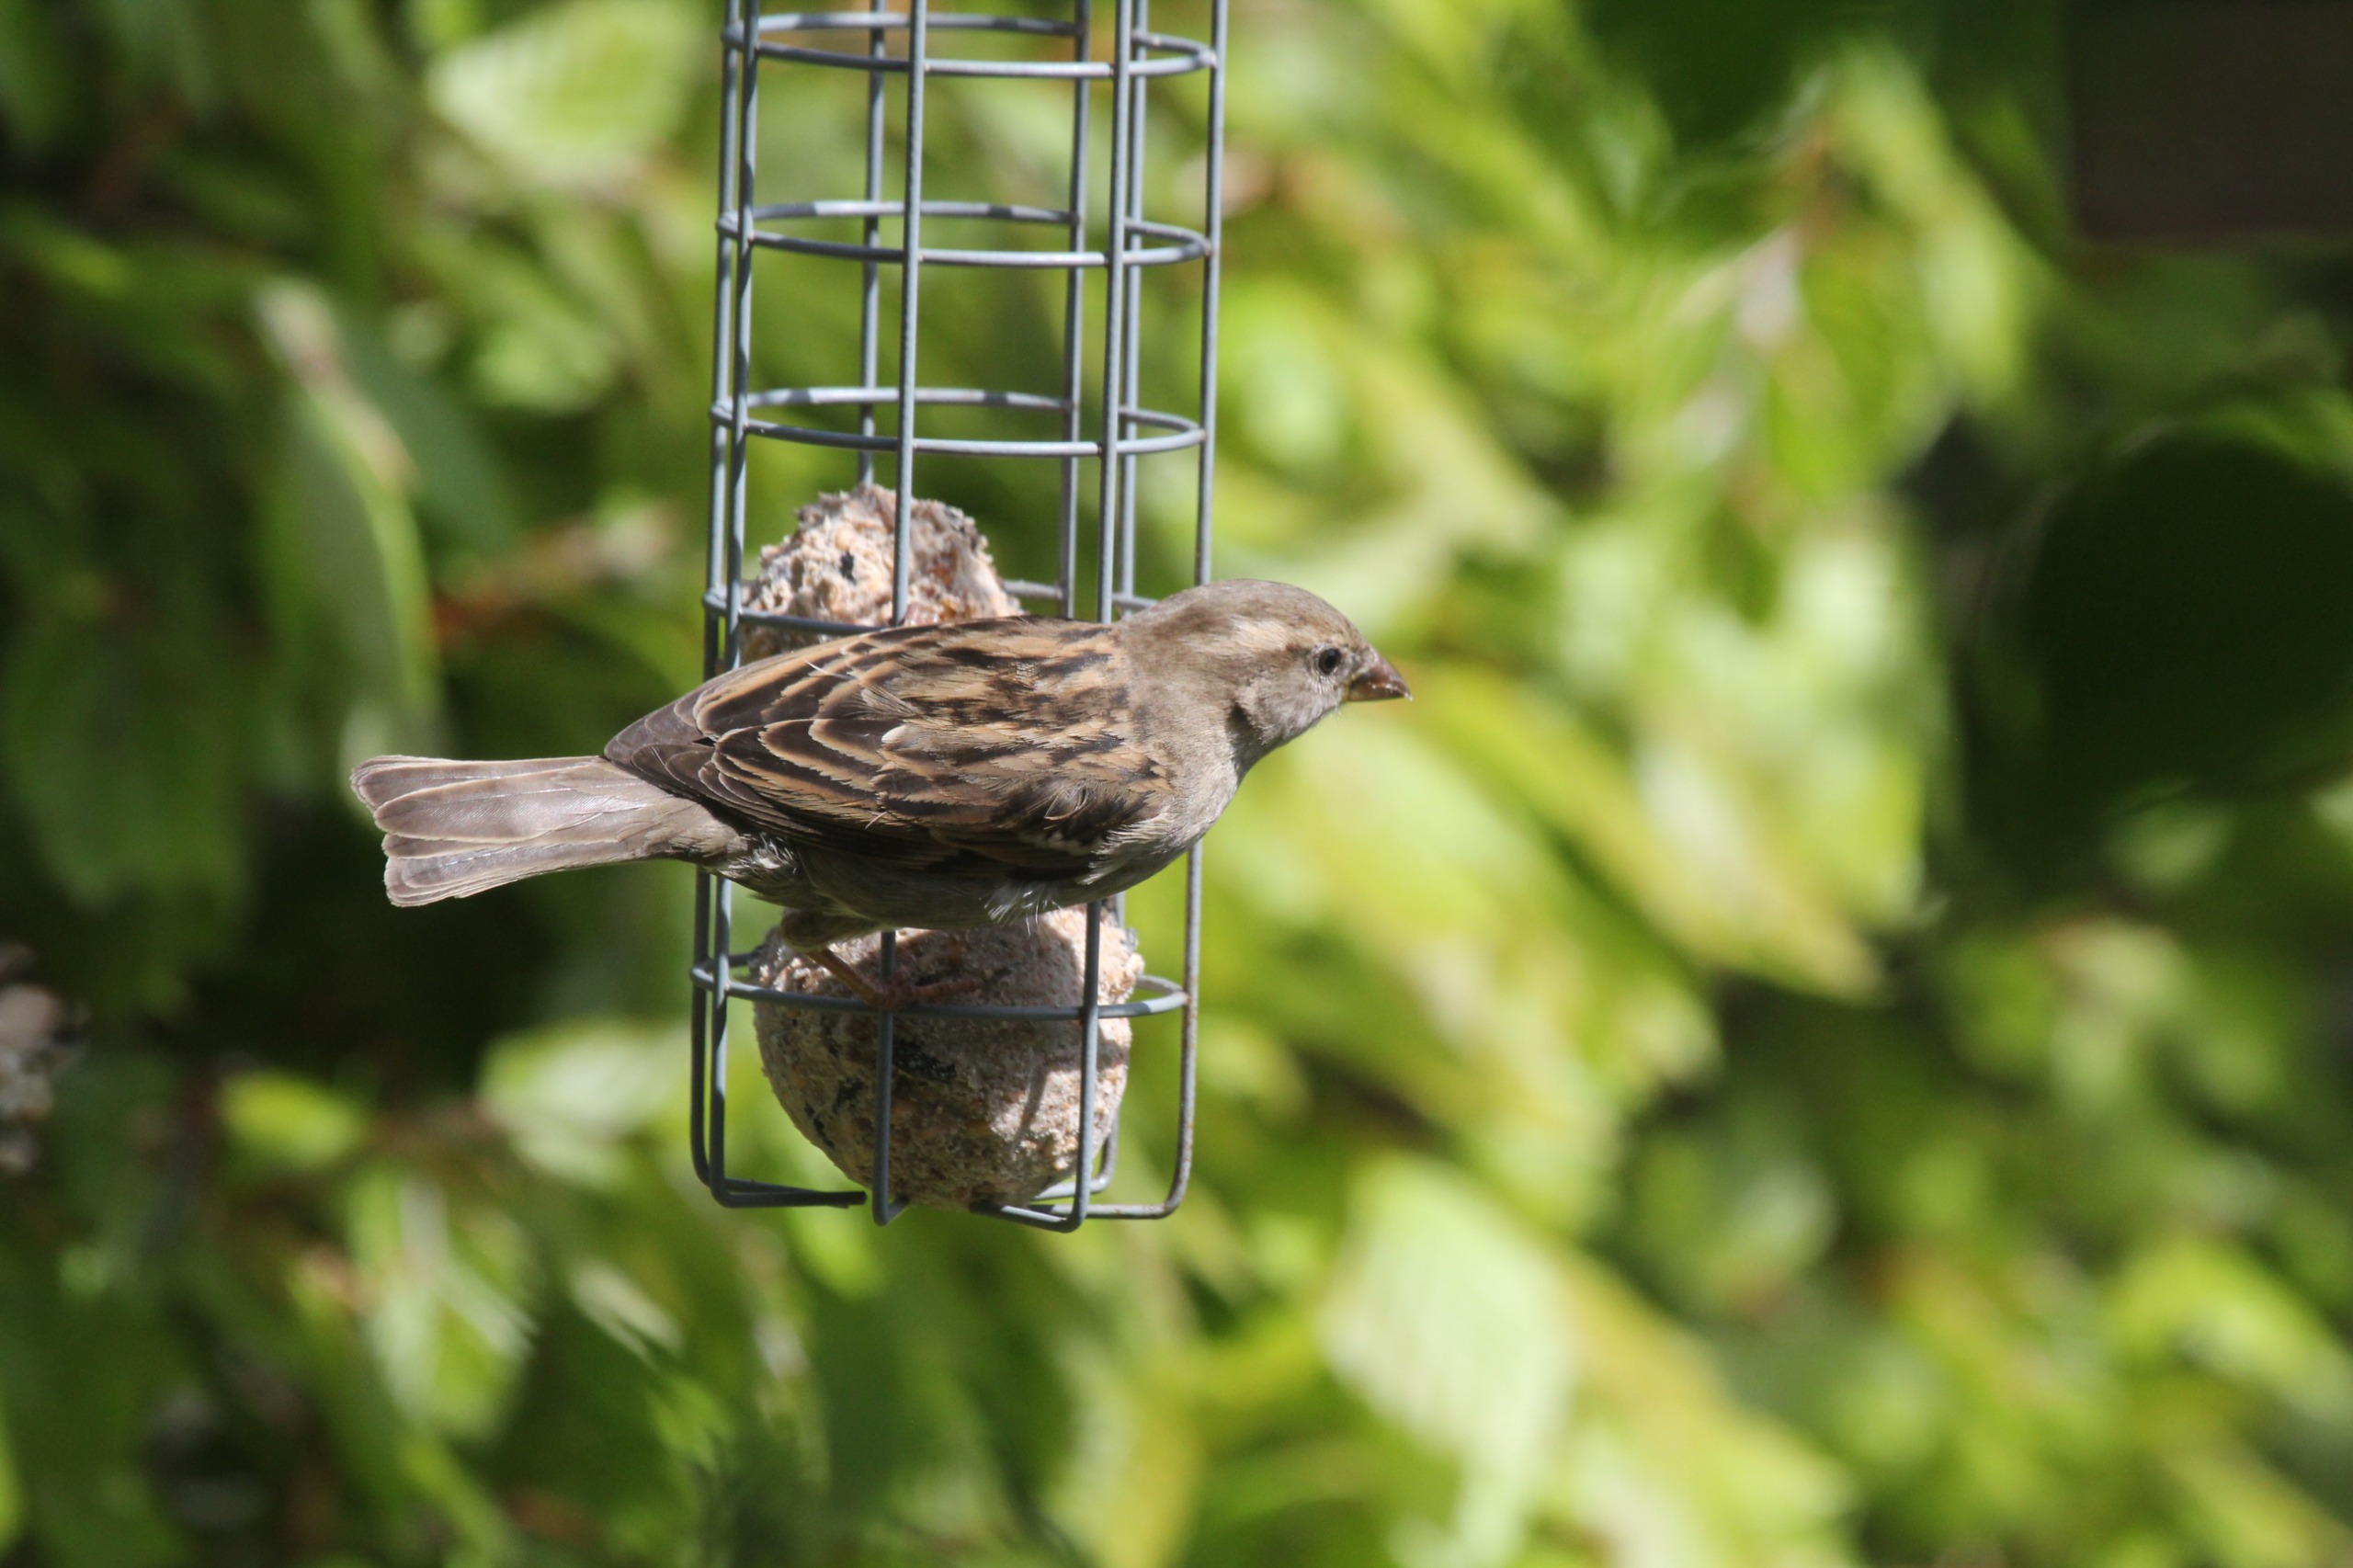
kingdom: Animalia
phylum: Chordata
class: Aves
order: Passeriformes
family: Passeridae
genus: Passer
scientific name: Passer domesticus
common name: Gråspurv
